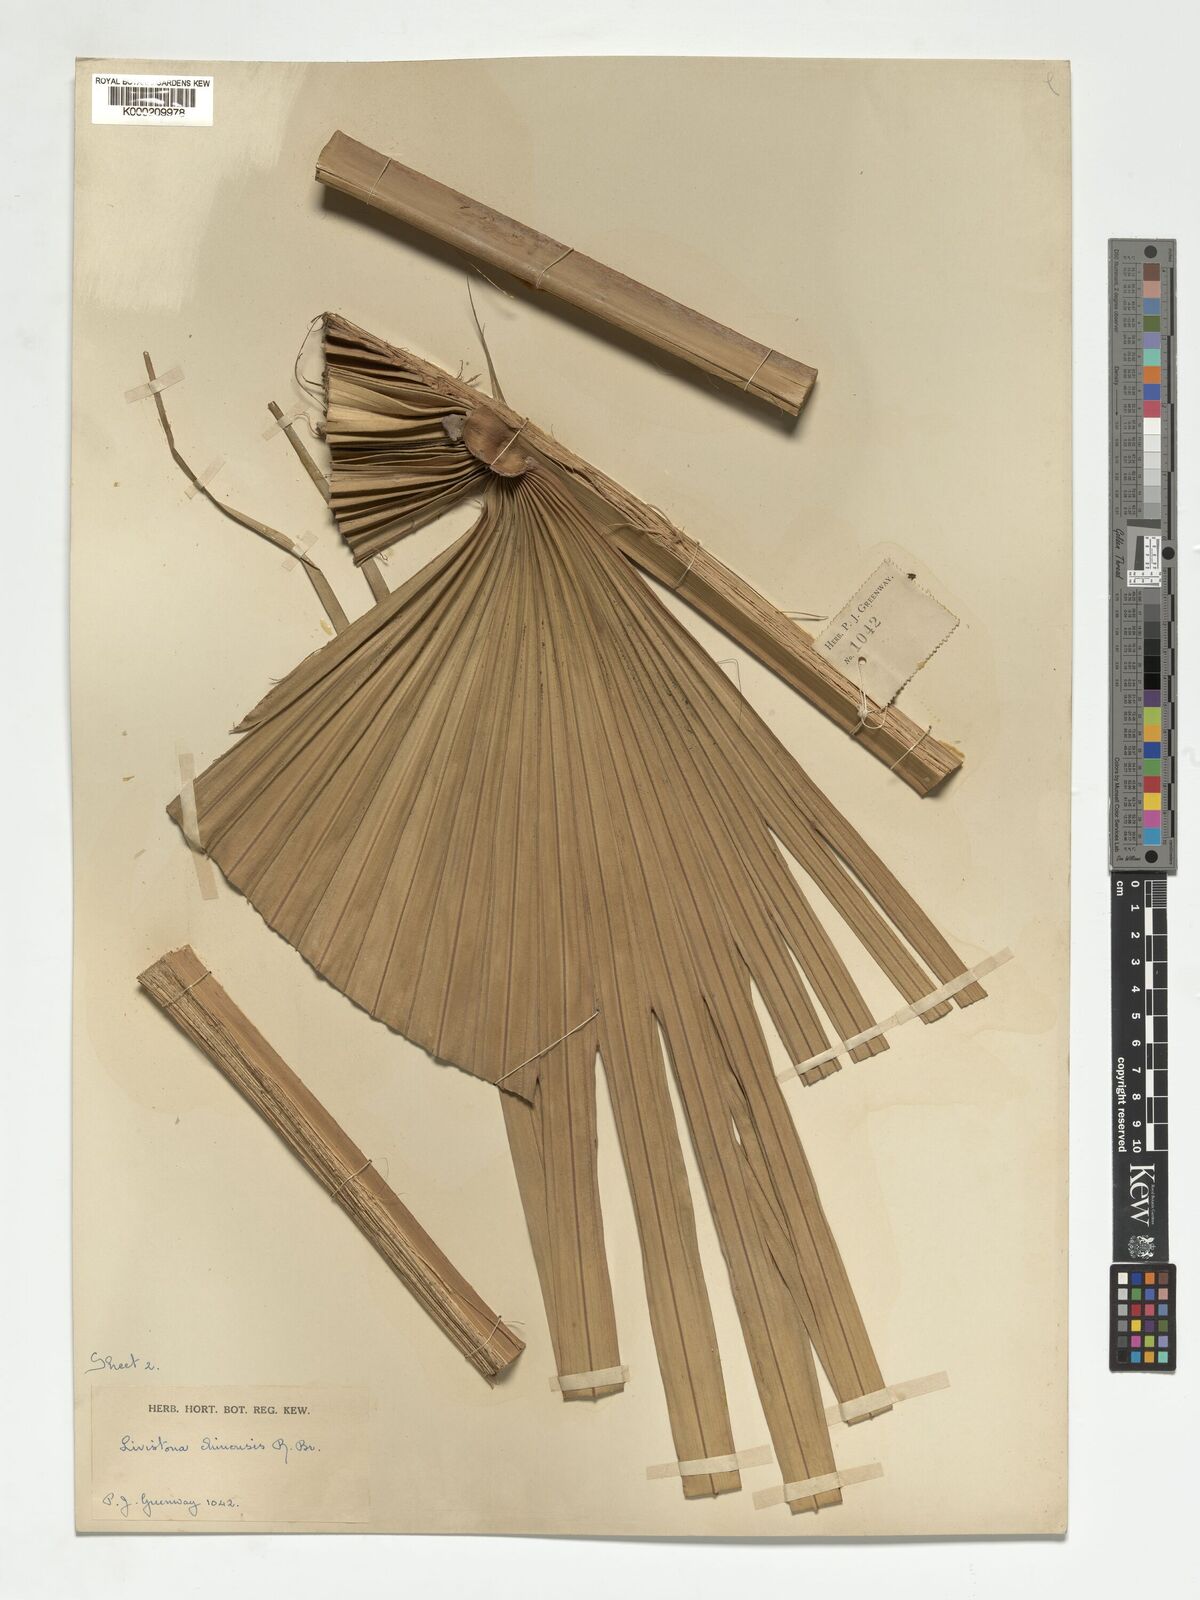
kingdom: Plantae
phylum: Tracheophyta
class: Liliopsida
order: Arecales
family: Arecaceae
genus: Livistona
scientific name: Livistona chinensis
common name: Fountain palm
